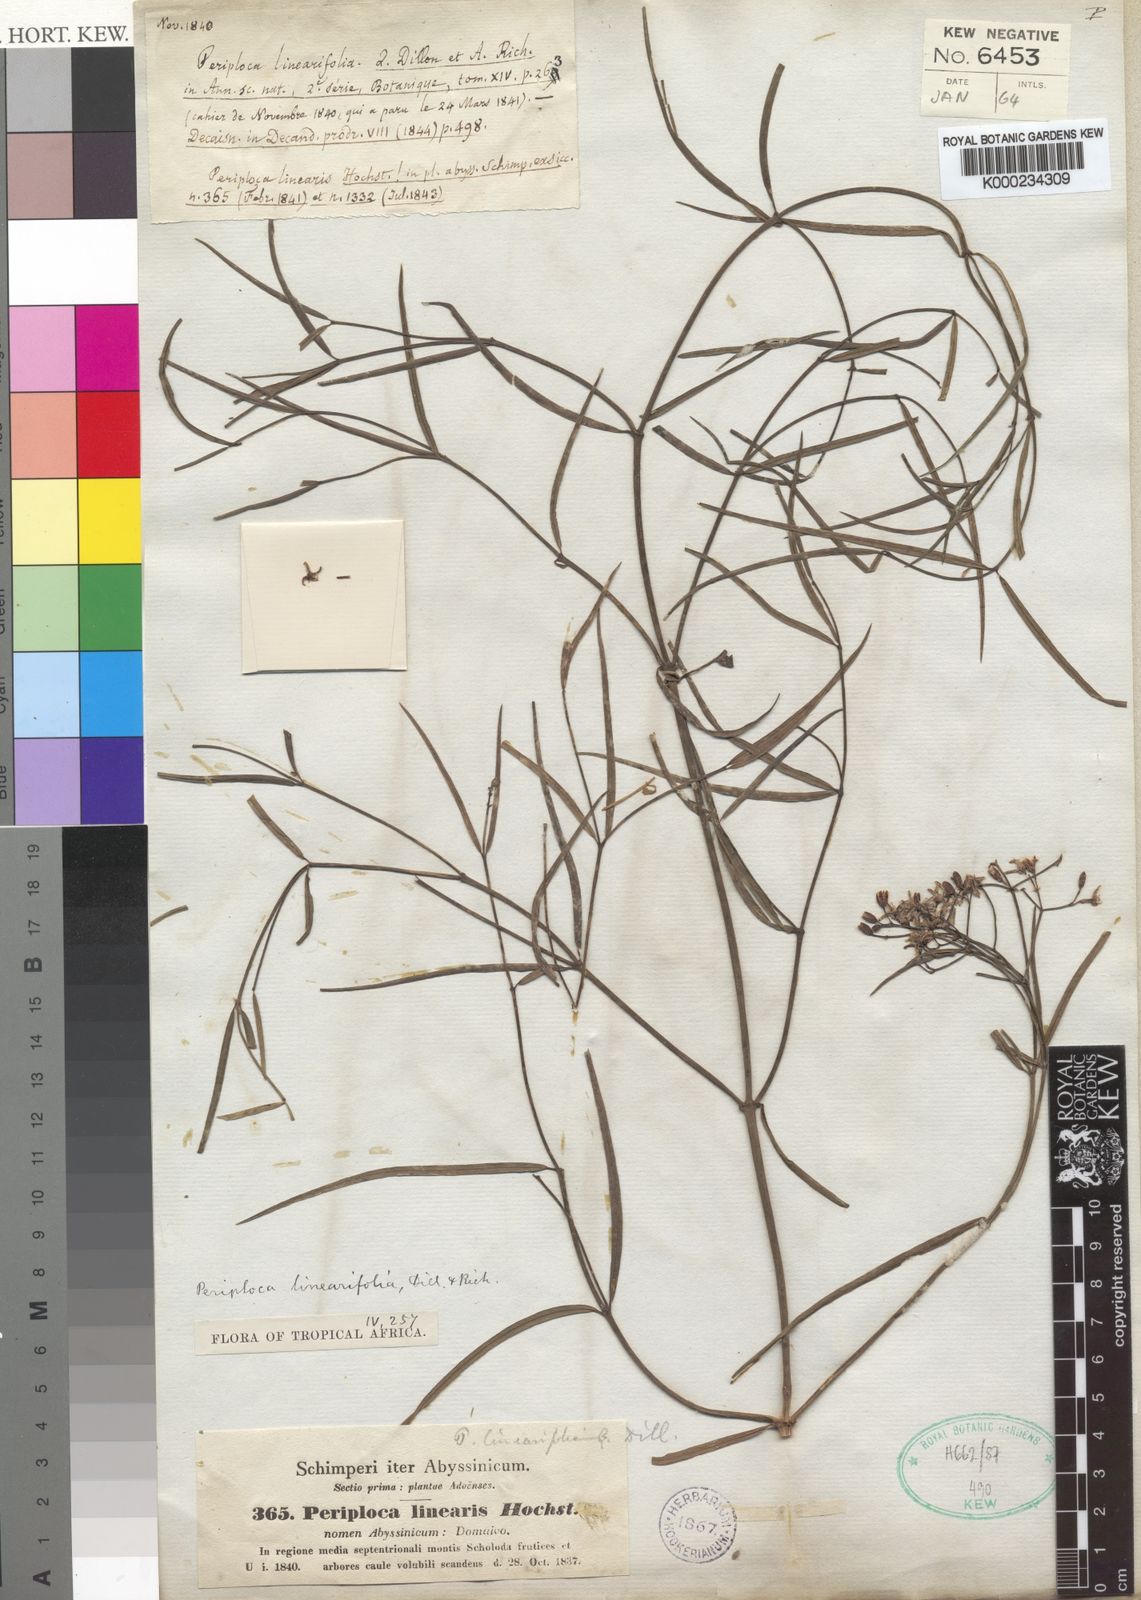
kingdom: Plantae
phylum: Tracheophyta
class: Magnoliopsida
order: Gentianales
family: Apocynaceae
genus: Periploca
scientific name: Periploca linearifolia
